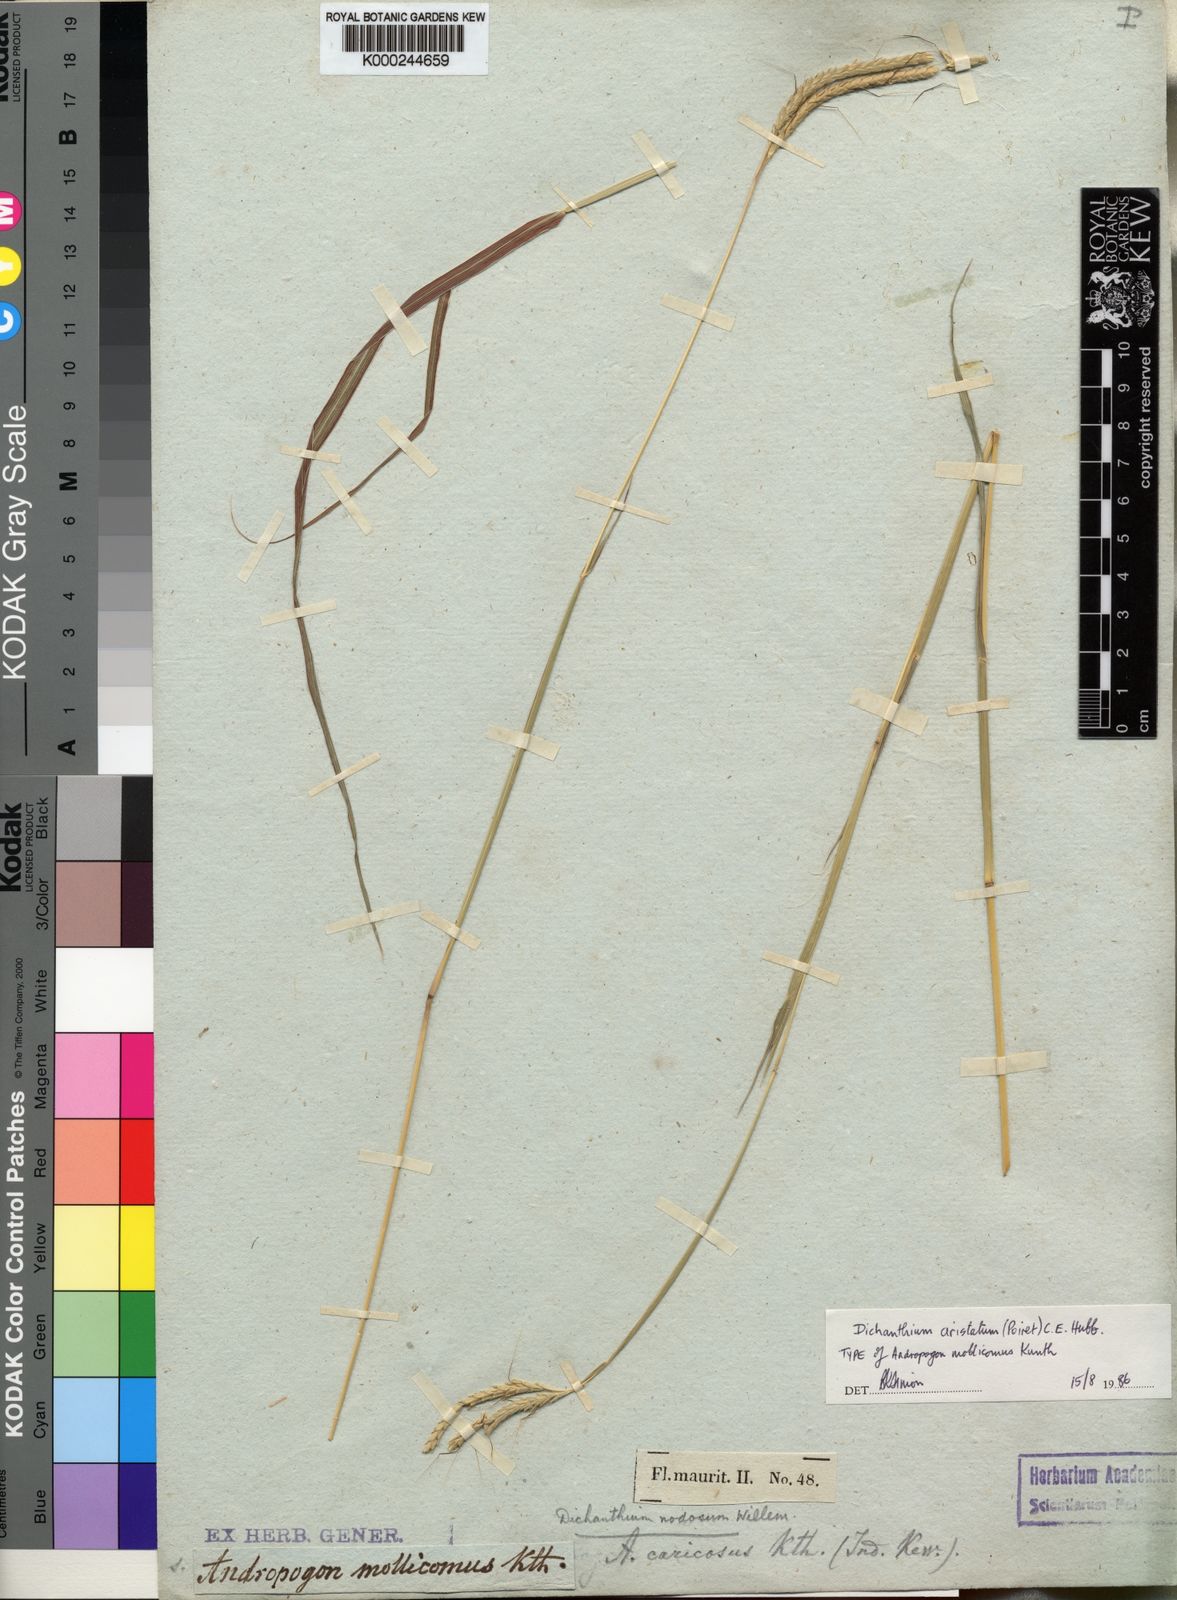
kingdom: Plantae
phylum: Tracheophyta
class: Liliopsida
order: Poales
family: Poaceae
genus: Dichanthium
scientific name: Dichanthium aristatum
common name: Angleton bluestem
